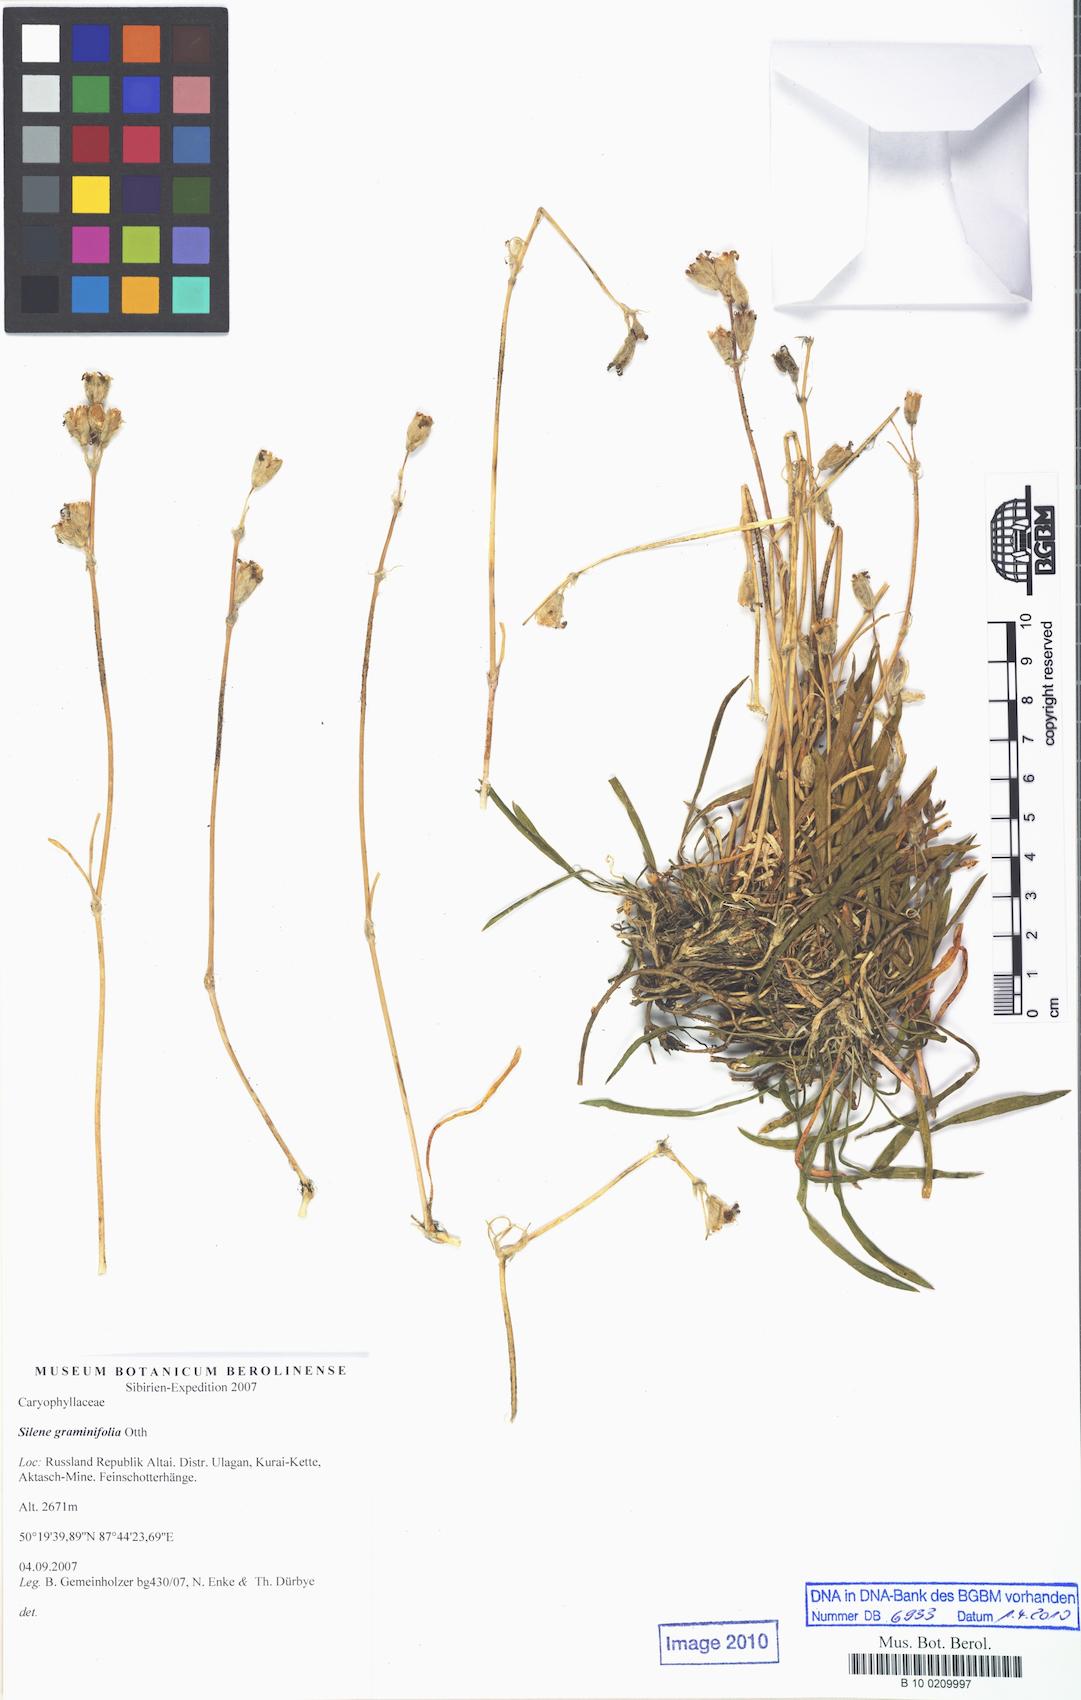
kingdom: Plantae
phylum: Tracheophyta
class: Magnoliopsida
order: Caryophyllales
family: Caryophyllaceae
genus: Silene
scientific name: Silene graminifolia
